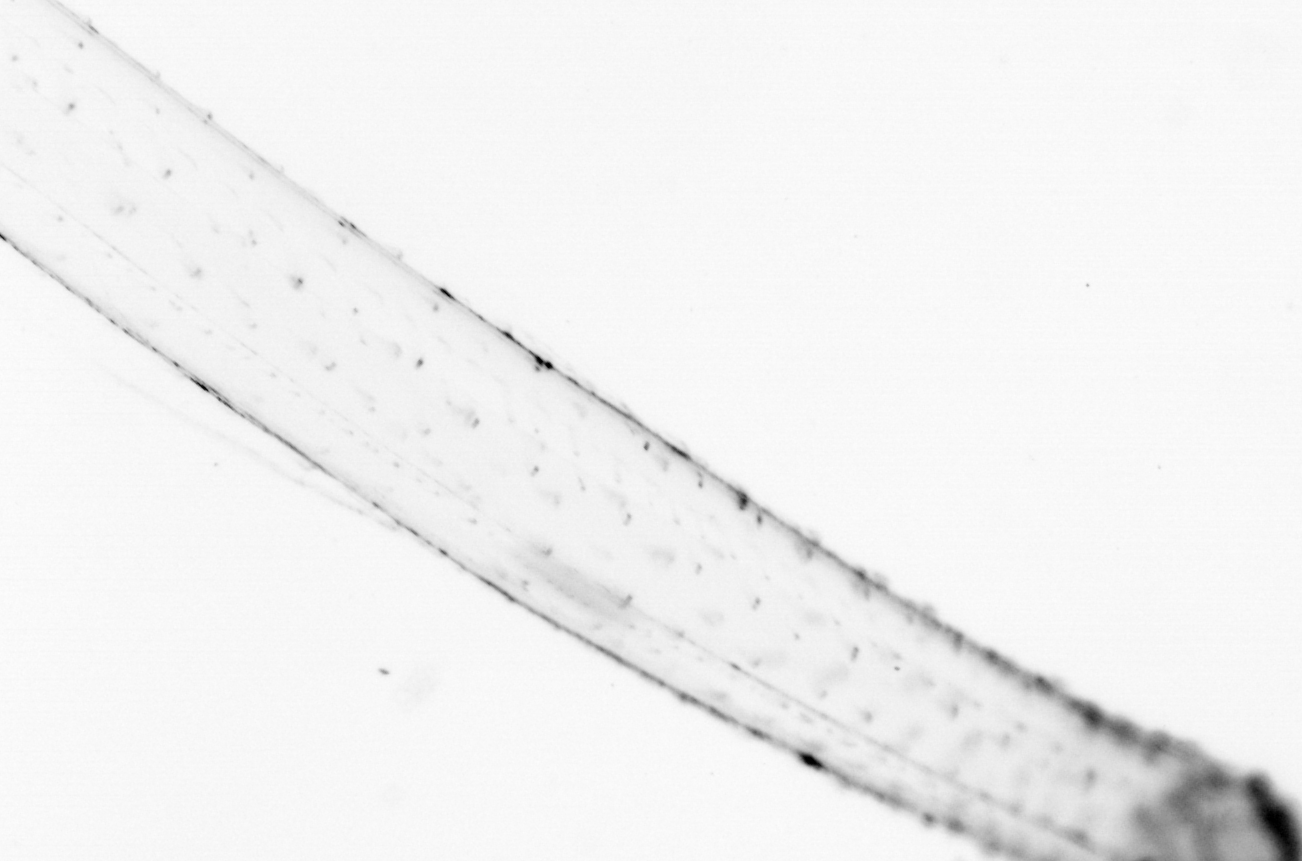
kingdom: Animalia
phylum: Chaetognatha
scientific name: Chaetognatha
